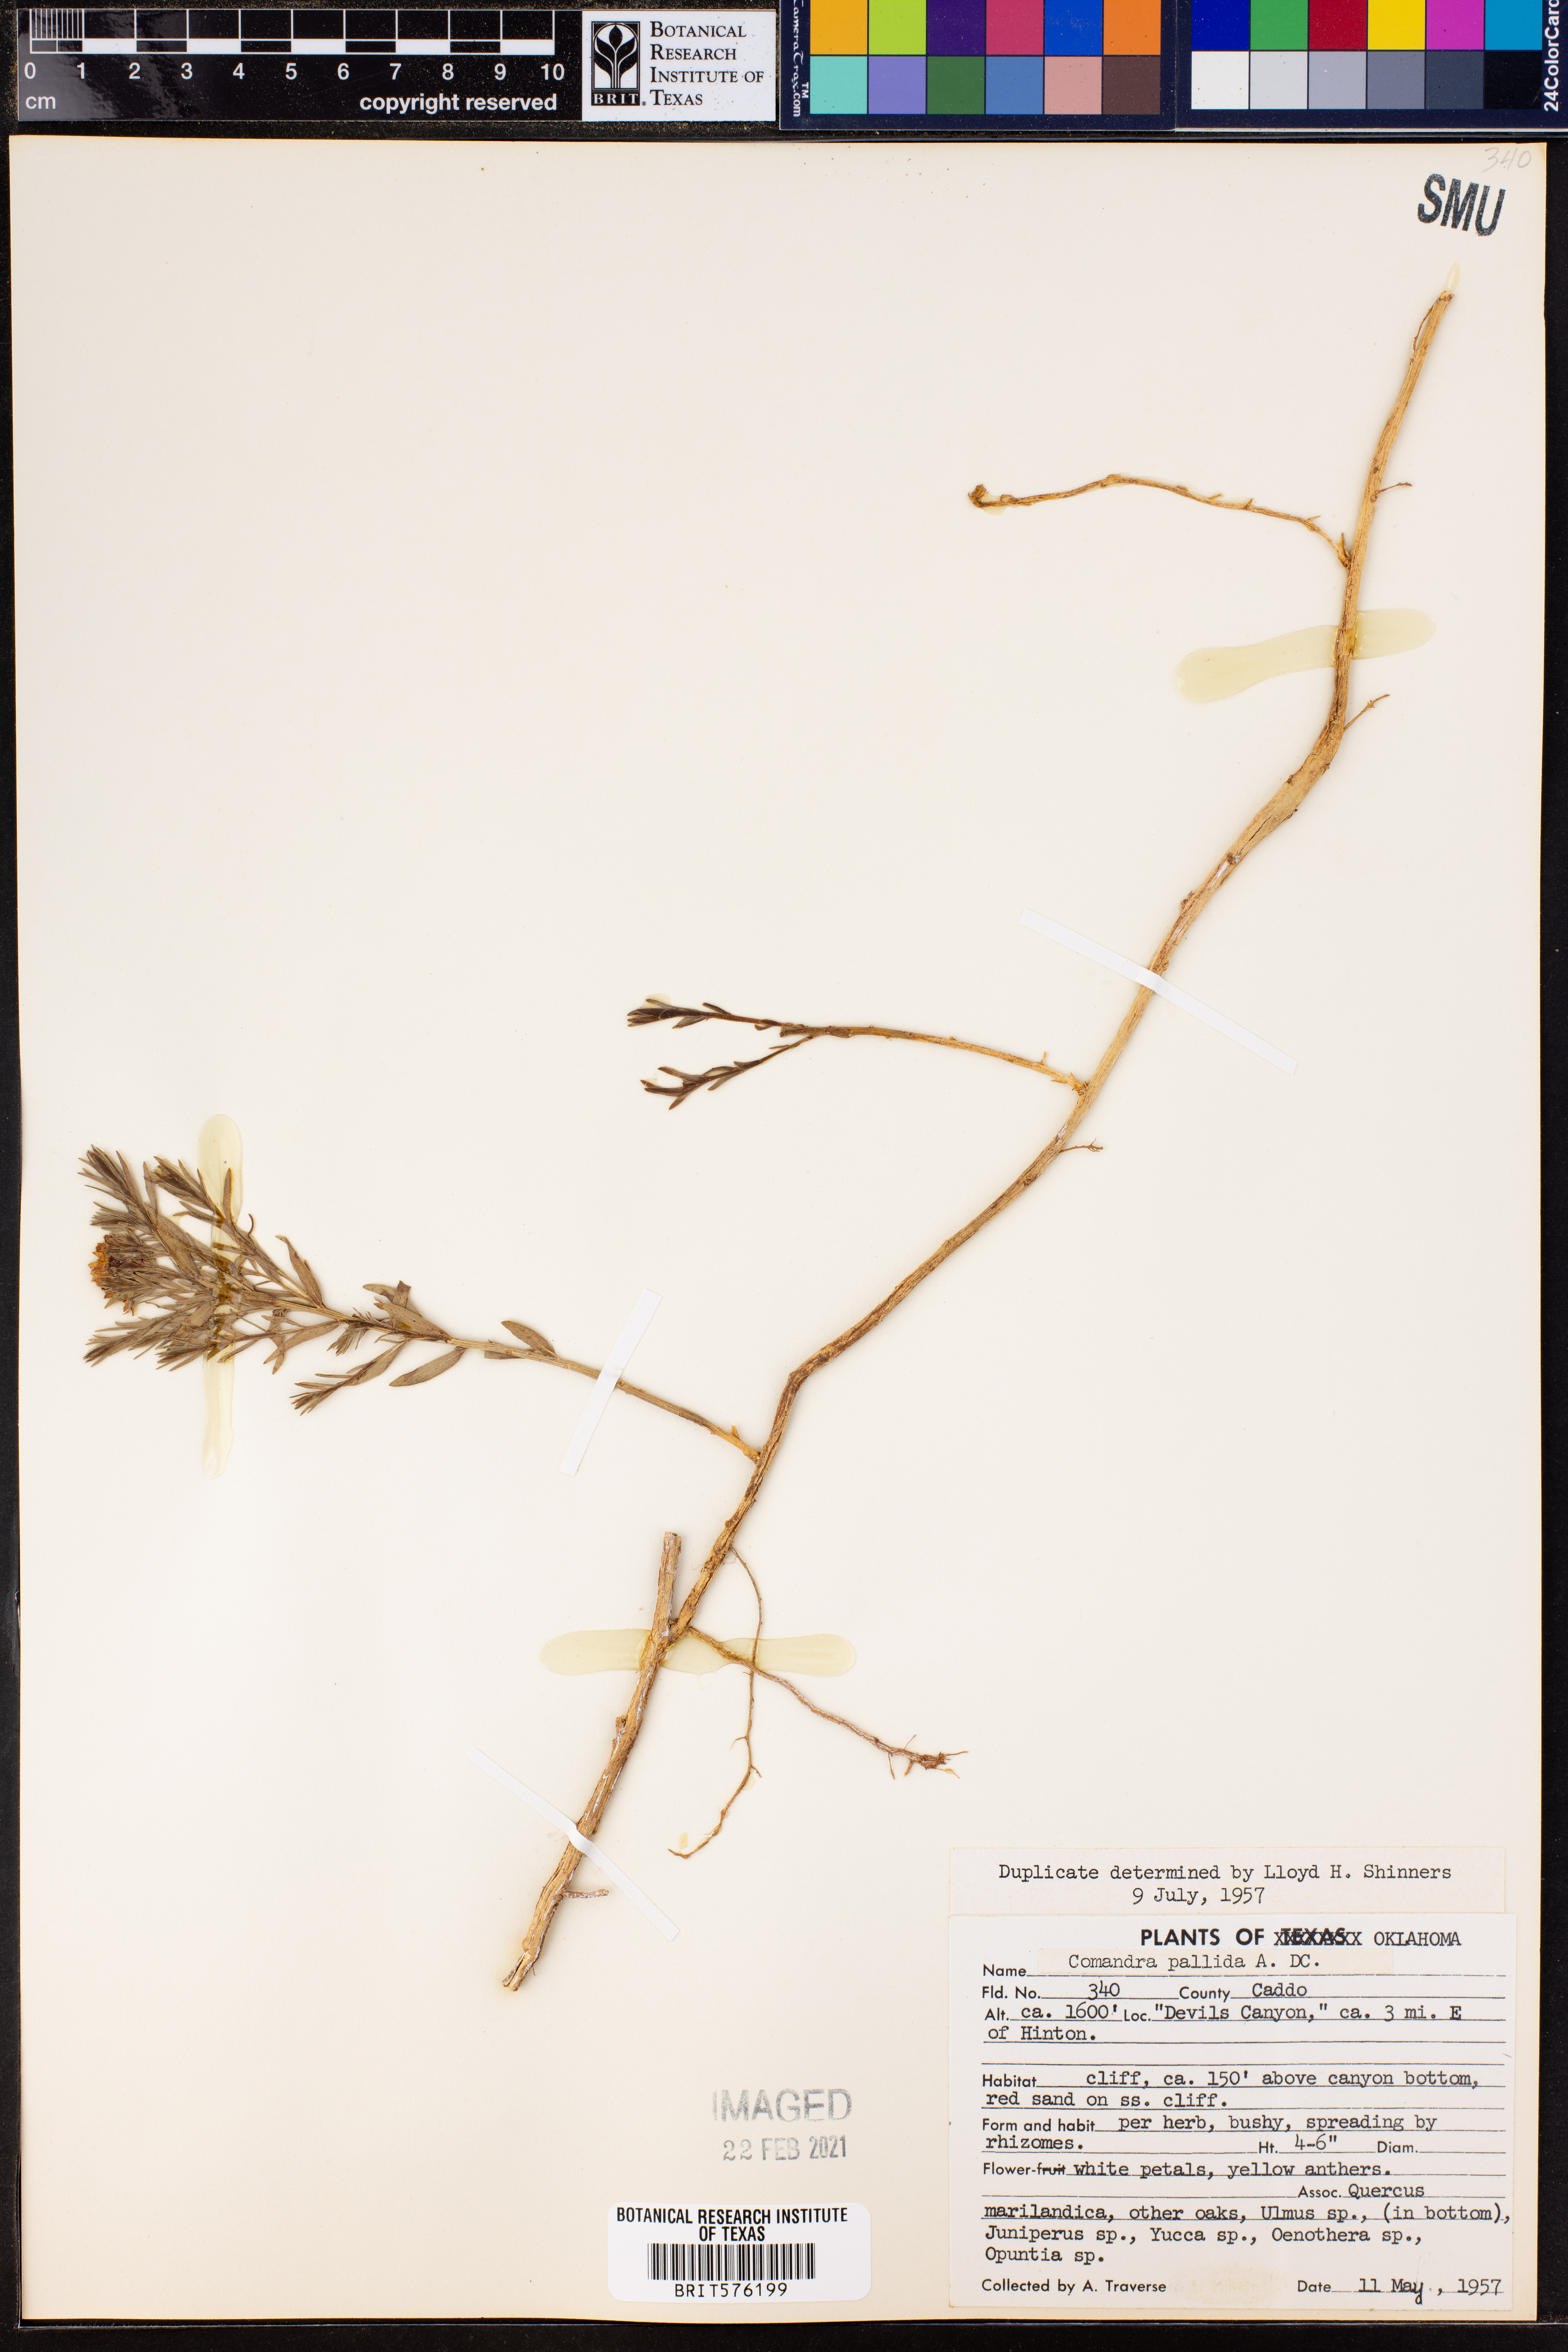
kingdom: Plantae
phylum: Tracheophyta
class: Magnoliopsida
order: Santalales
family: Comandraceae
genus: Comandra
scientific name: Comandra umbellata
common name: Bastard toadflax
